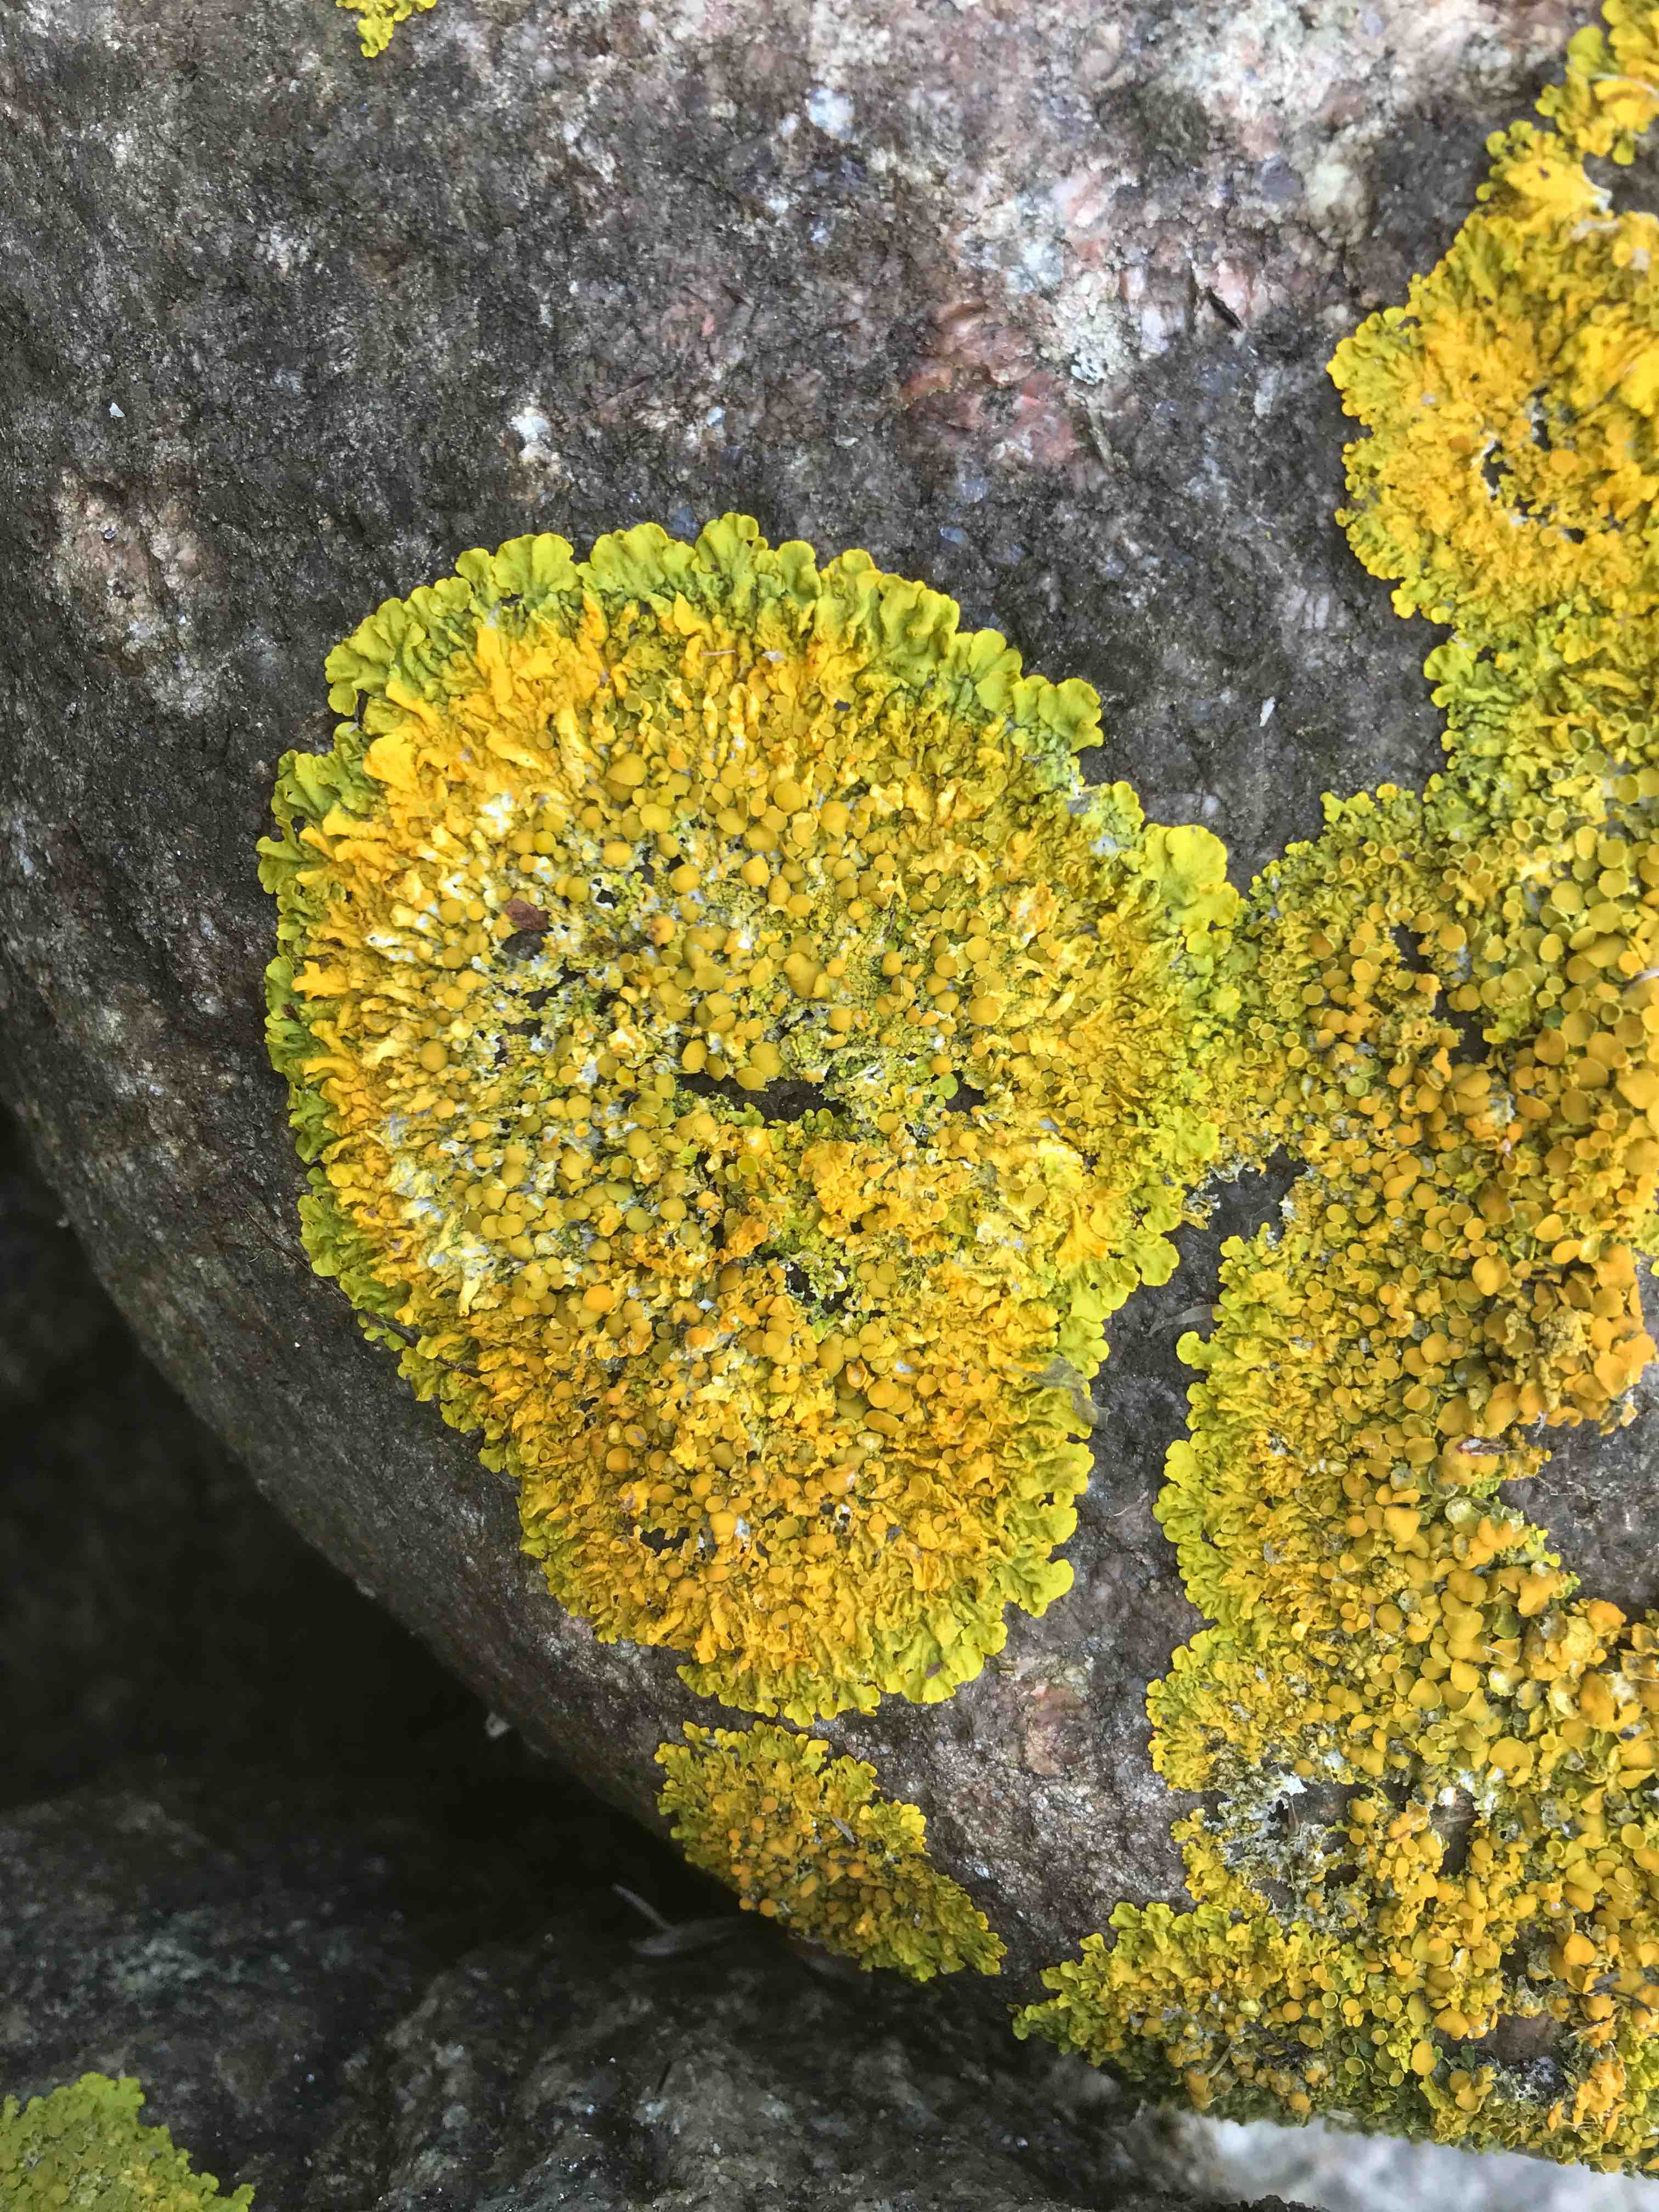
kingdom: Fungi
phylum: Ascomycota
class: Lecanoromycetes
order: Teloschistales
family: Teloschistaceae
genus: Xanthoria
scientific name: Xanthoria parietina
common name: almindelig væggelav
